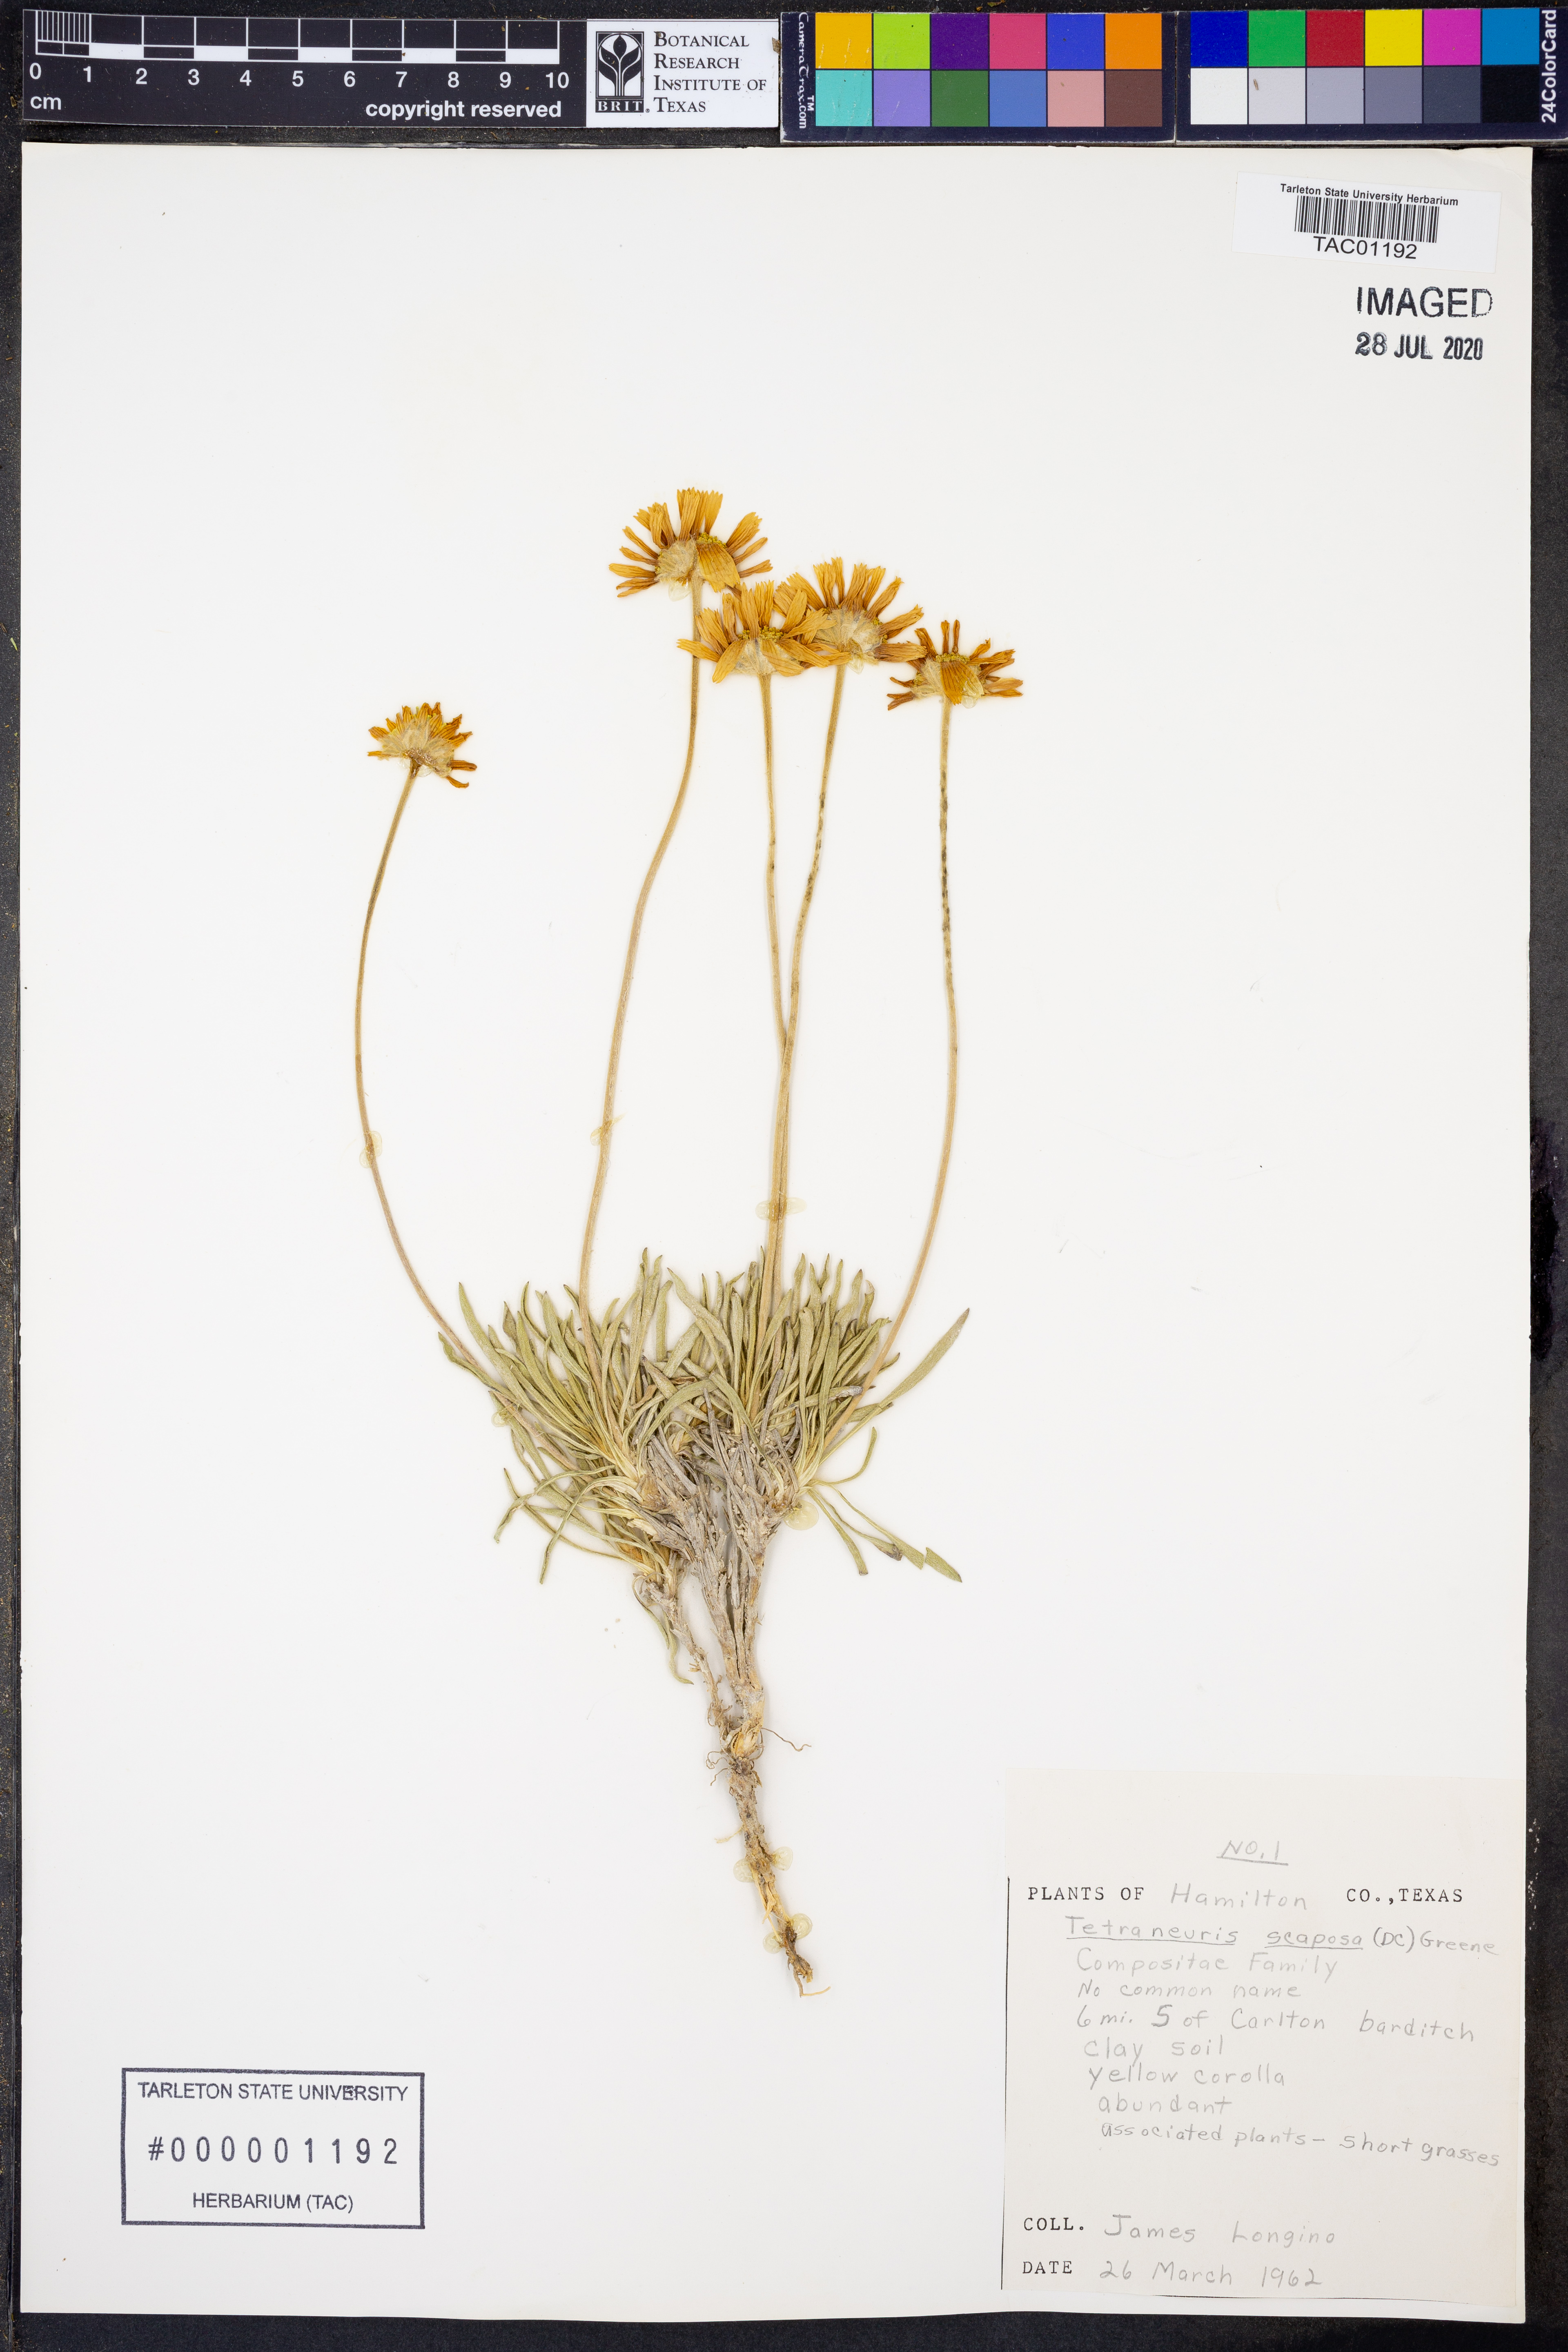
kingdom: Plantae
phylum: Tracheophyta
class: Magnoliopsida
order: Asterales
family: Asteraceae
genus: Tetraneuris
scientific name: Tetraneuris scaposa
